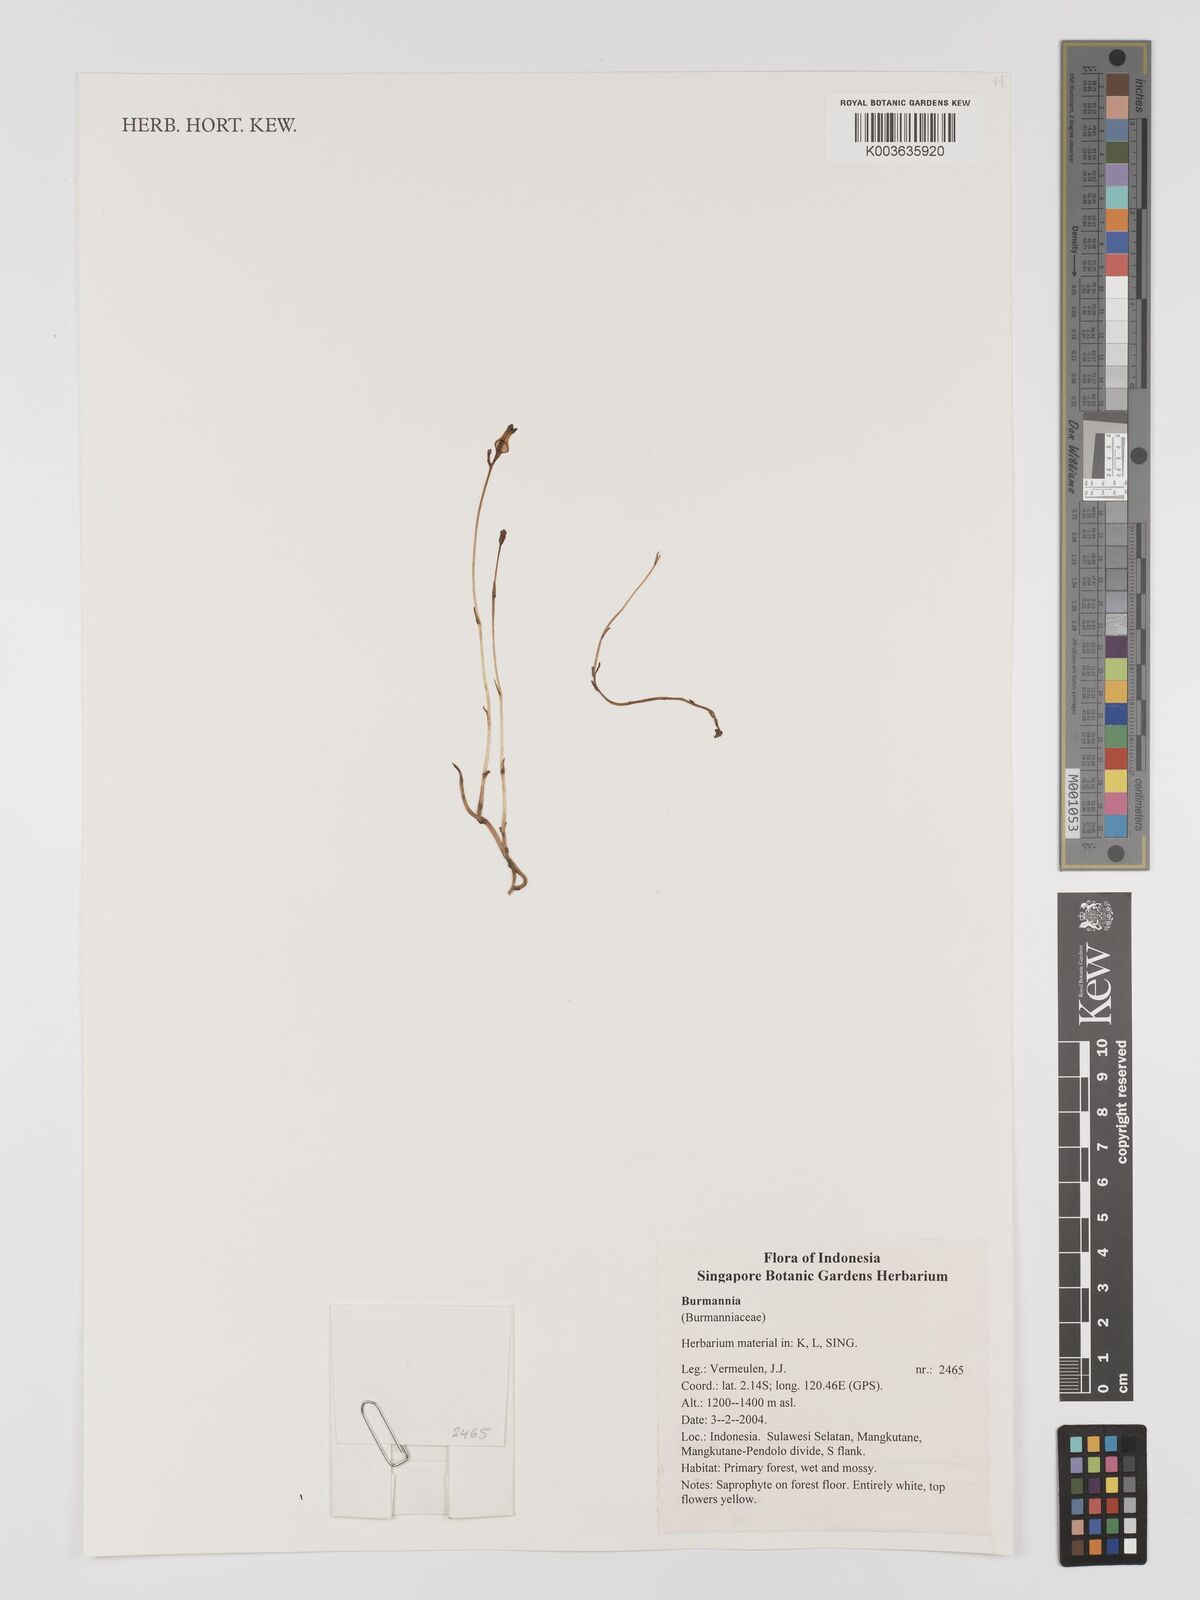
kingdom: Plantae
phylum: Tracheophyta
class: Liliopsida
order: Dioscoreales
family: Burmanniaceae
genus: Burmannia
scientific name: Burmannia
